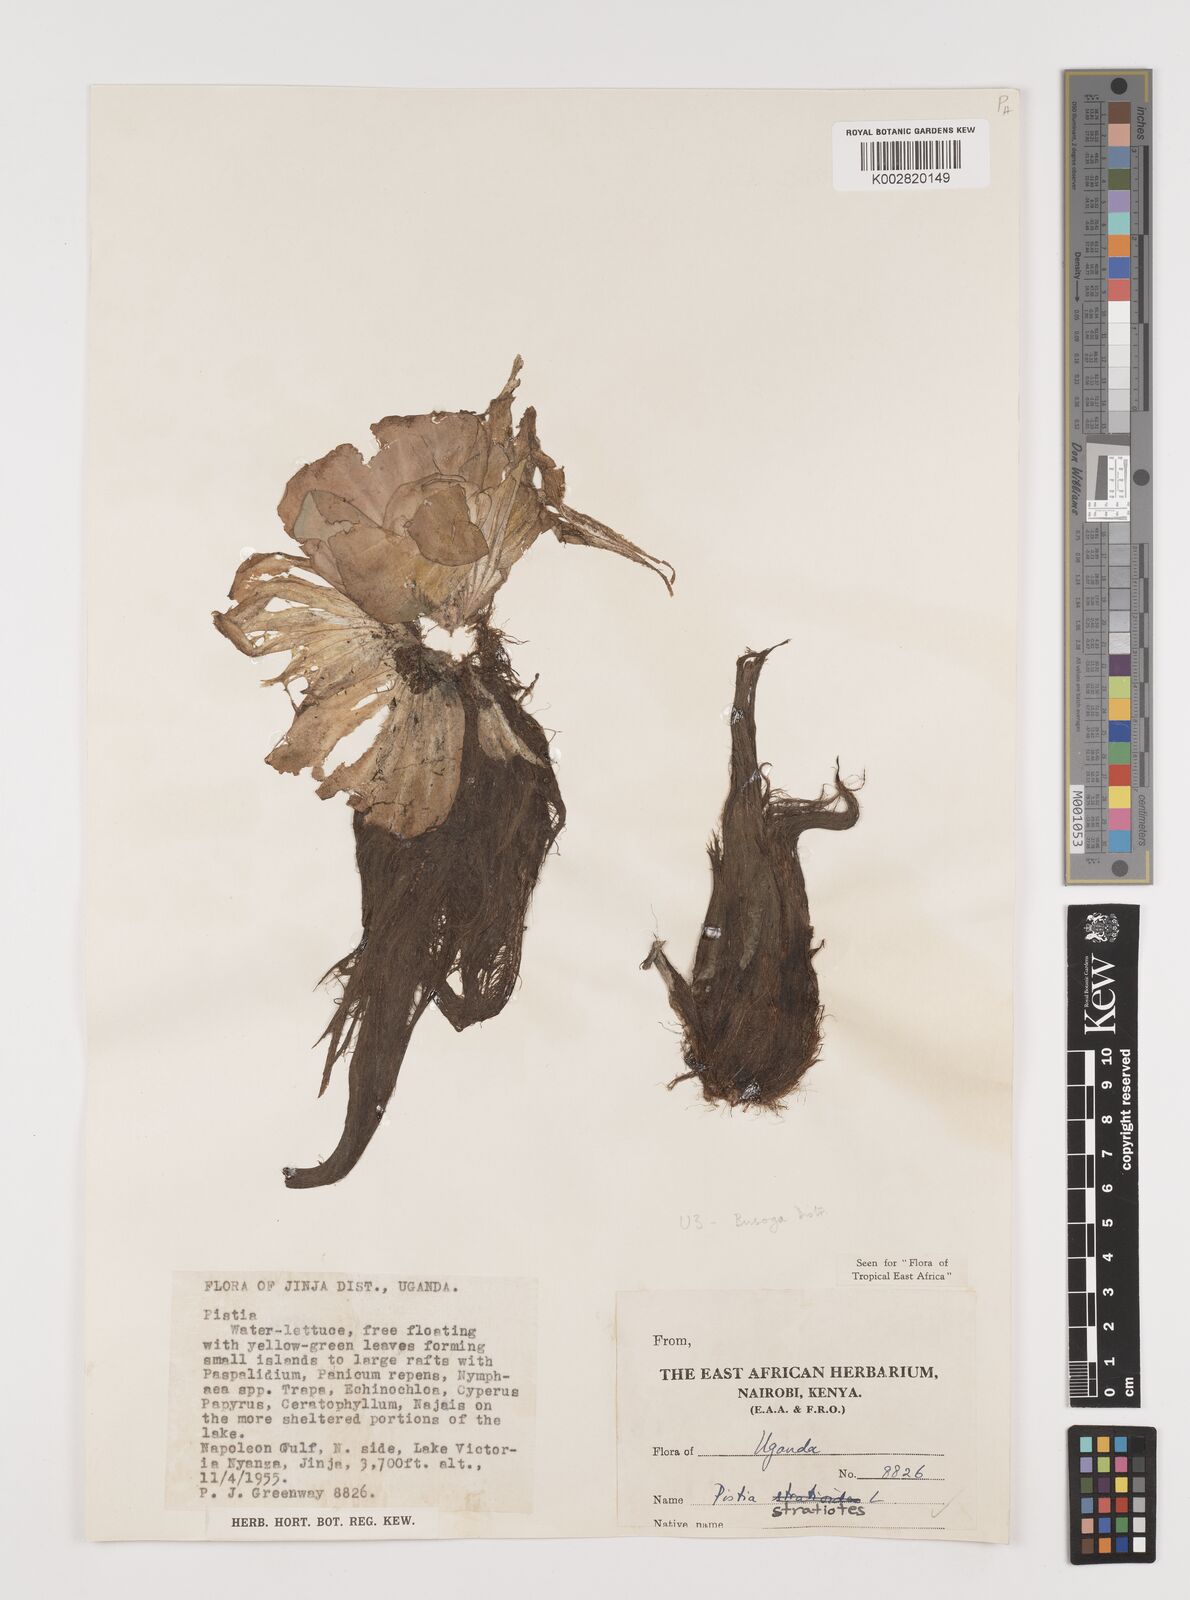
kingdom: Plantae
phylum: Tracheophyta
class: Liliopsida
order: Alismatales
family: Araceae
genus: Pistia
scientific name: Pistia stratiotes
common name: Water lettuce
